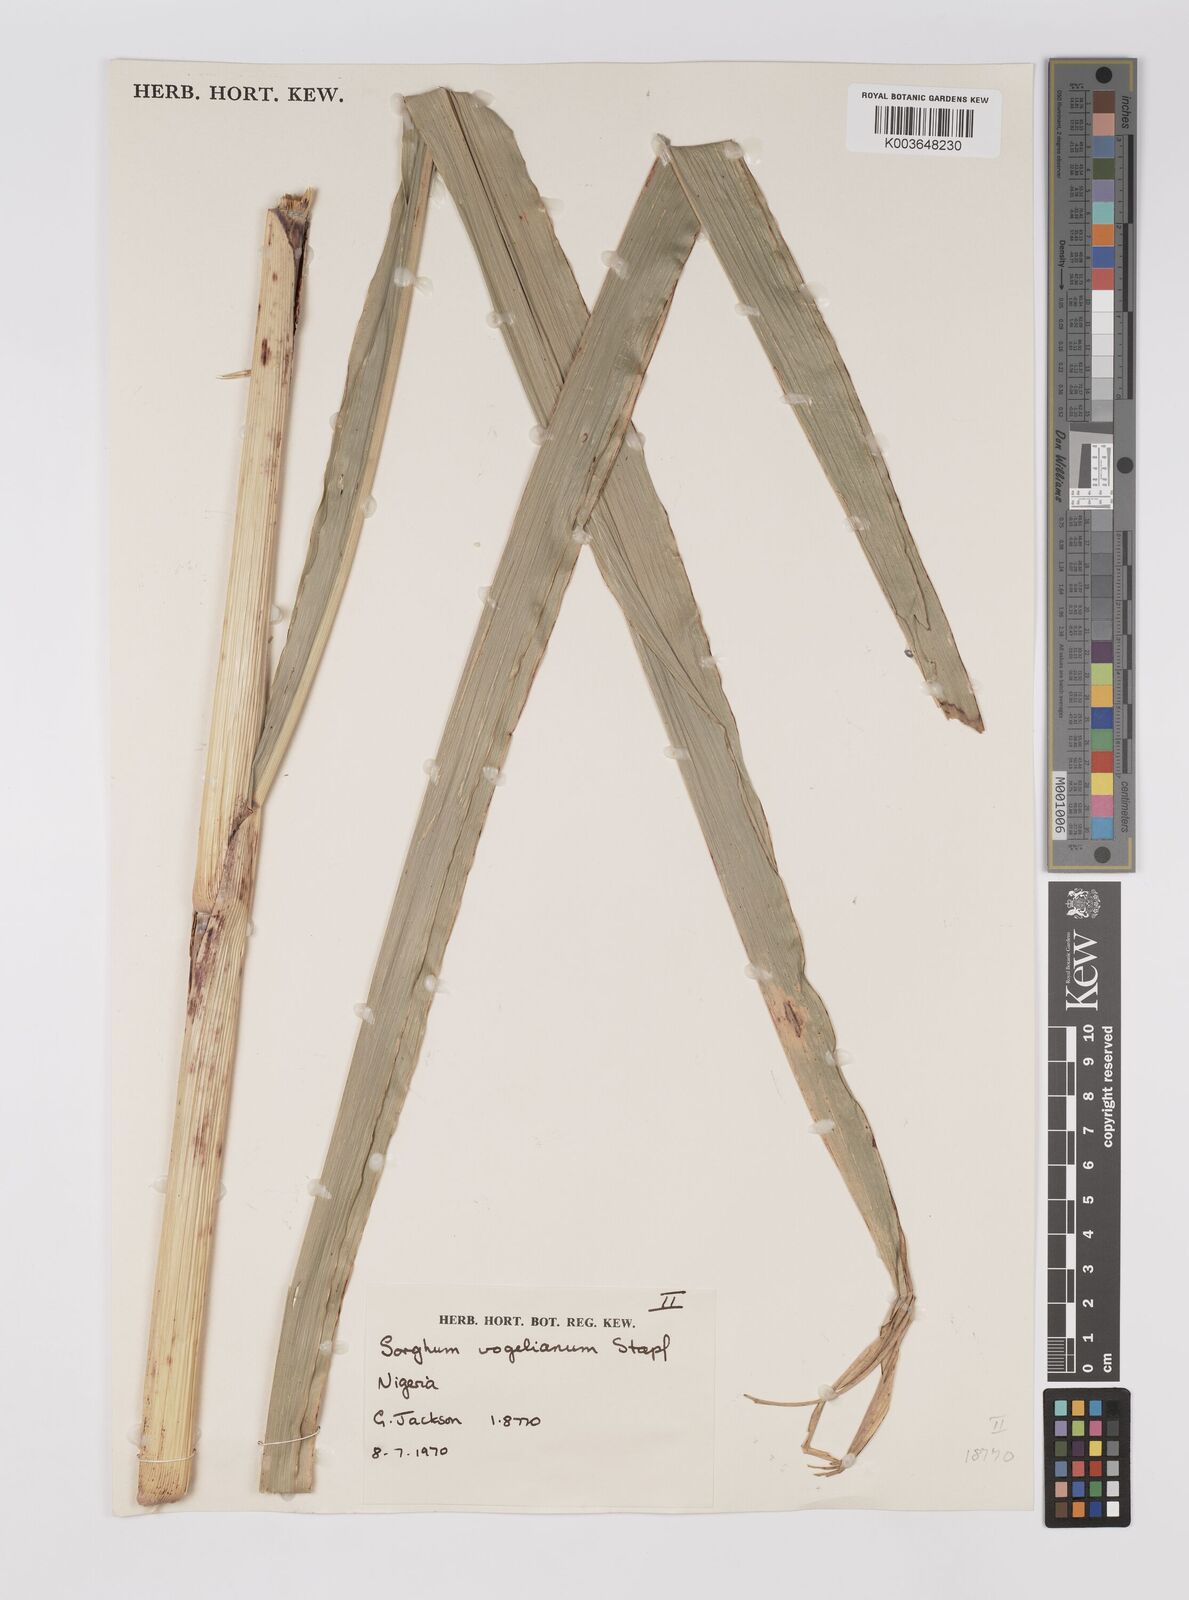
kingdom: Plantae
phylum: Tracheophyta
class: Liliopsida
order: Poales
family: Poaceae
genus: Sorghum
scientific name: Sorghum arundinaceum
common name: Sorghum
